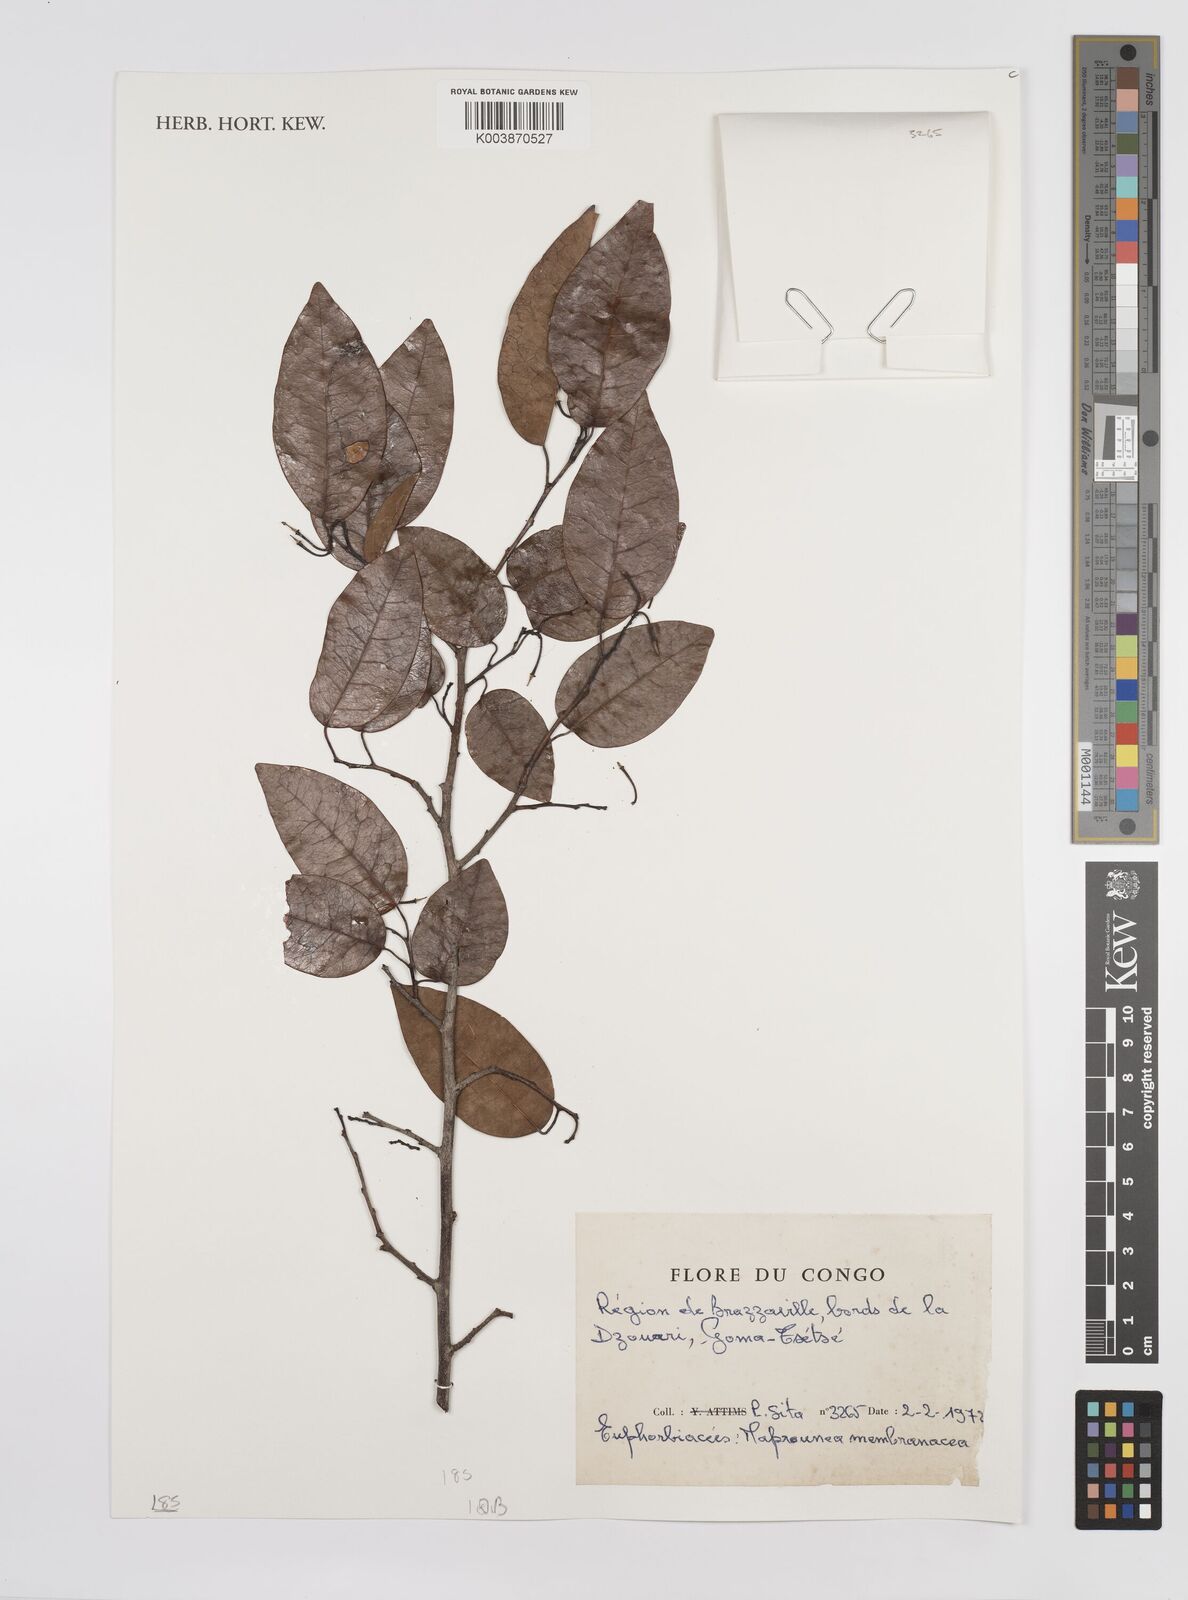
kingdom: Plantae
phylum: Tracheophyta
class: Magnoliopsida
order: Malpighiales
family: Euphorbiaceae
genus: Maprounea
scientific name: Maprounea membranacea
